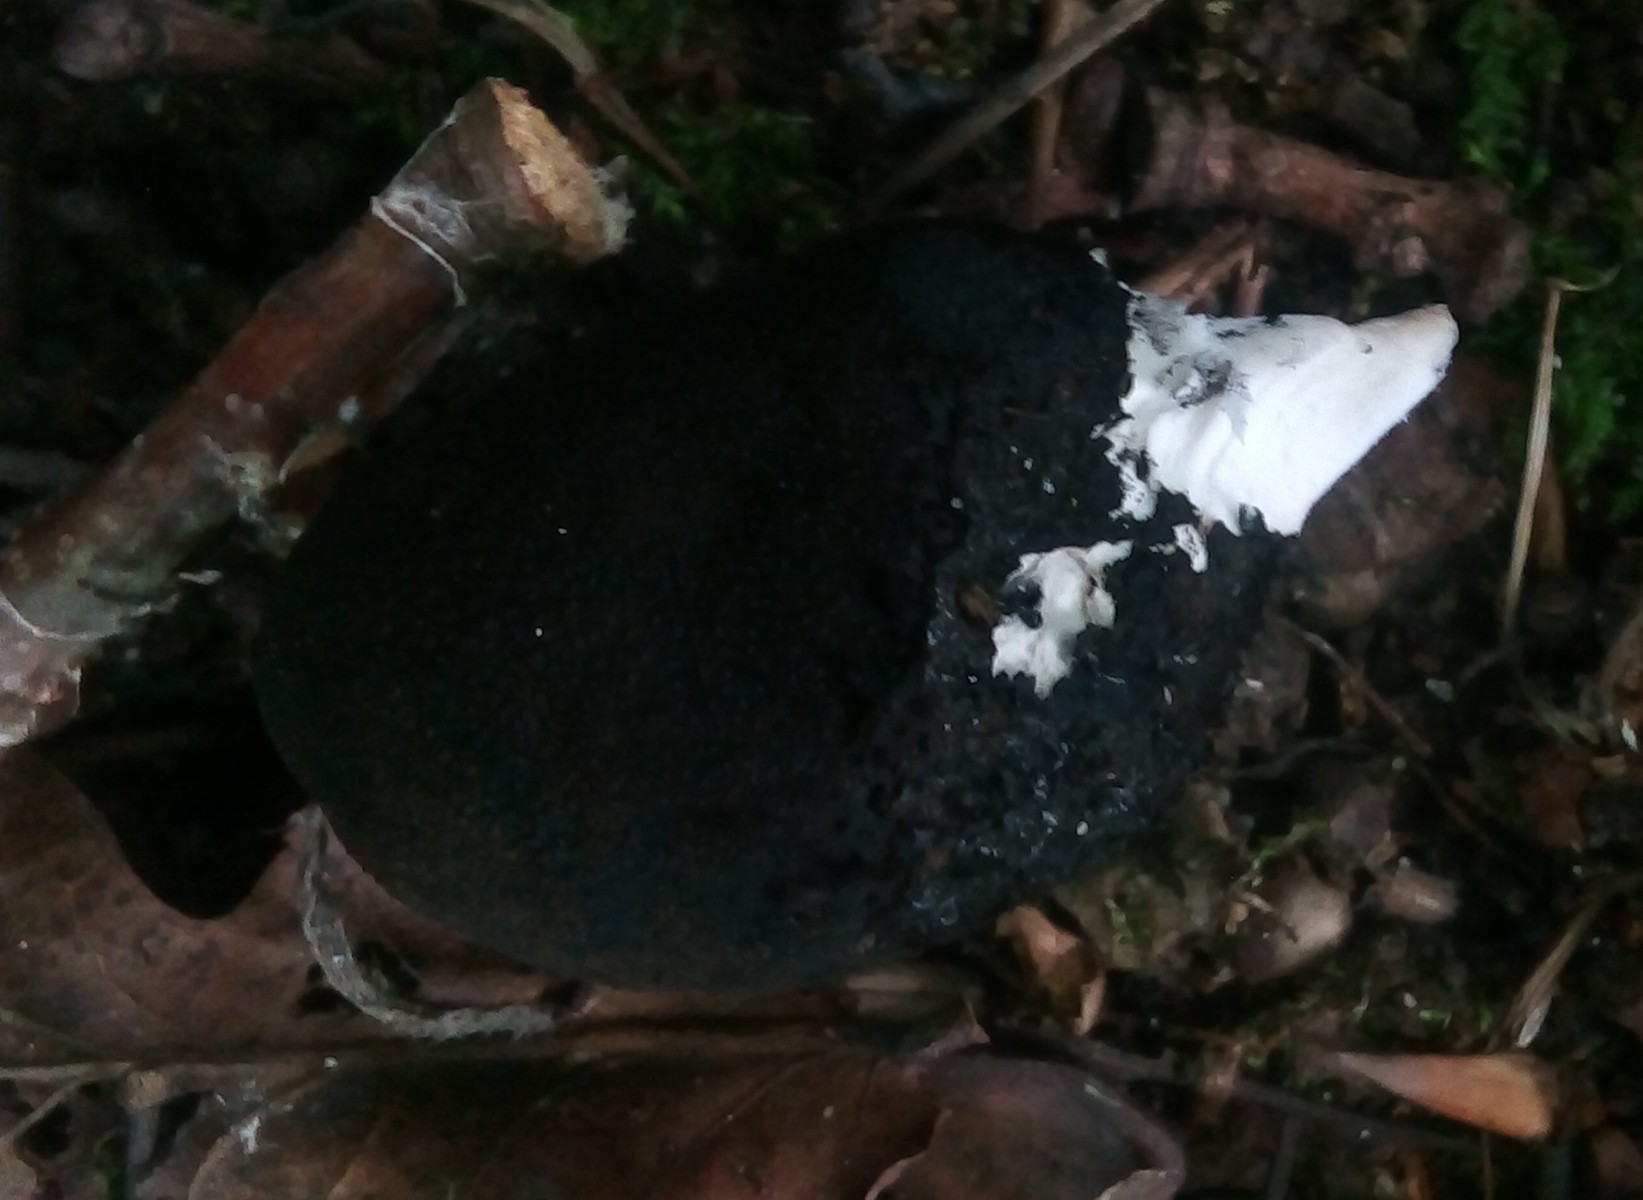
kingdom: Fungi
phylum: Ascomycota
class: Sordariomycetes
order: Xylariales
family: Xylariaceae
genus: Xylaria
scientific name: Xylaria polymorpha
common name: kølle-stødsvamp
